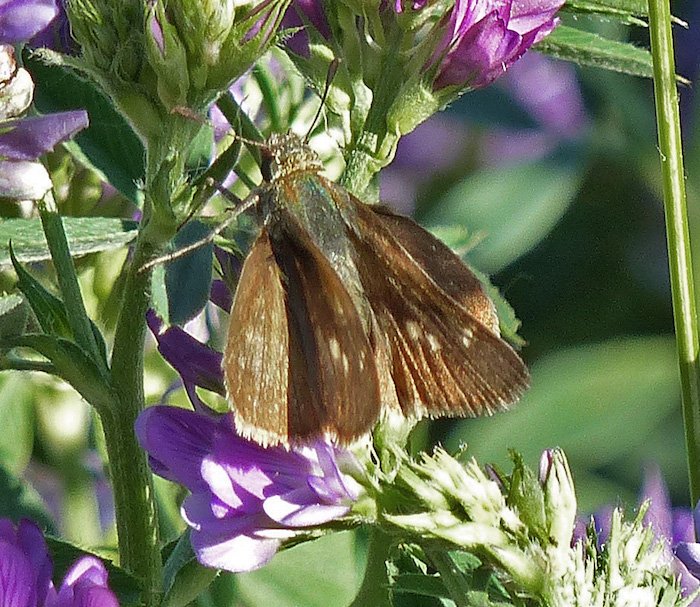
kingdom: Animalia
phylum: Arthropoda
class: Insecta
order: Lepidoptera
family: Hesperiidae
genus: Euphyes
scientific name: Euphyes vestris
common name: Dun Skipper
